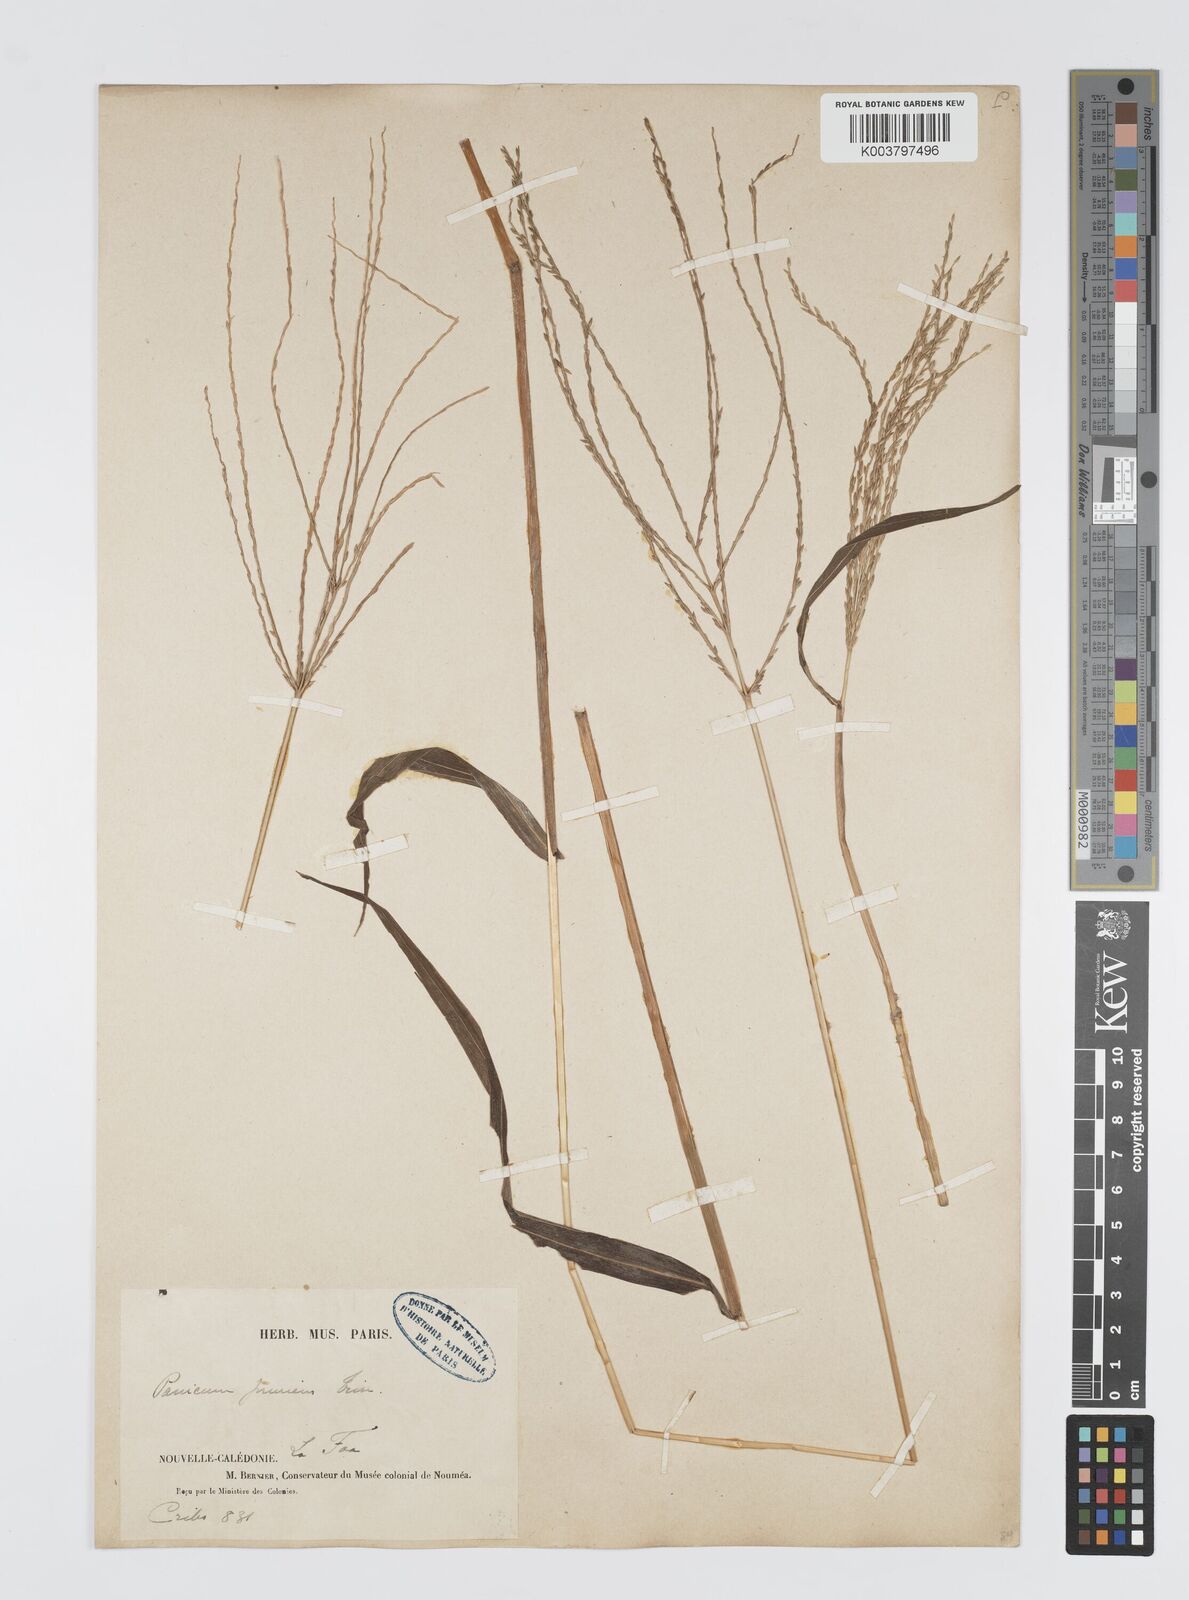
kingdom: Plantae
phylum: Tracheophyta
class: Liliopsida
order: Poales
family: Poaceae
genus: Digitaria
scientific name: Digitaria setigera
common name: East indian crabgrass
